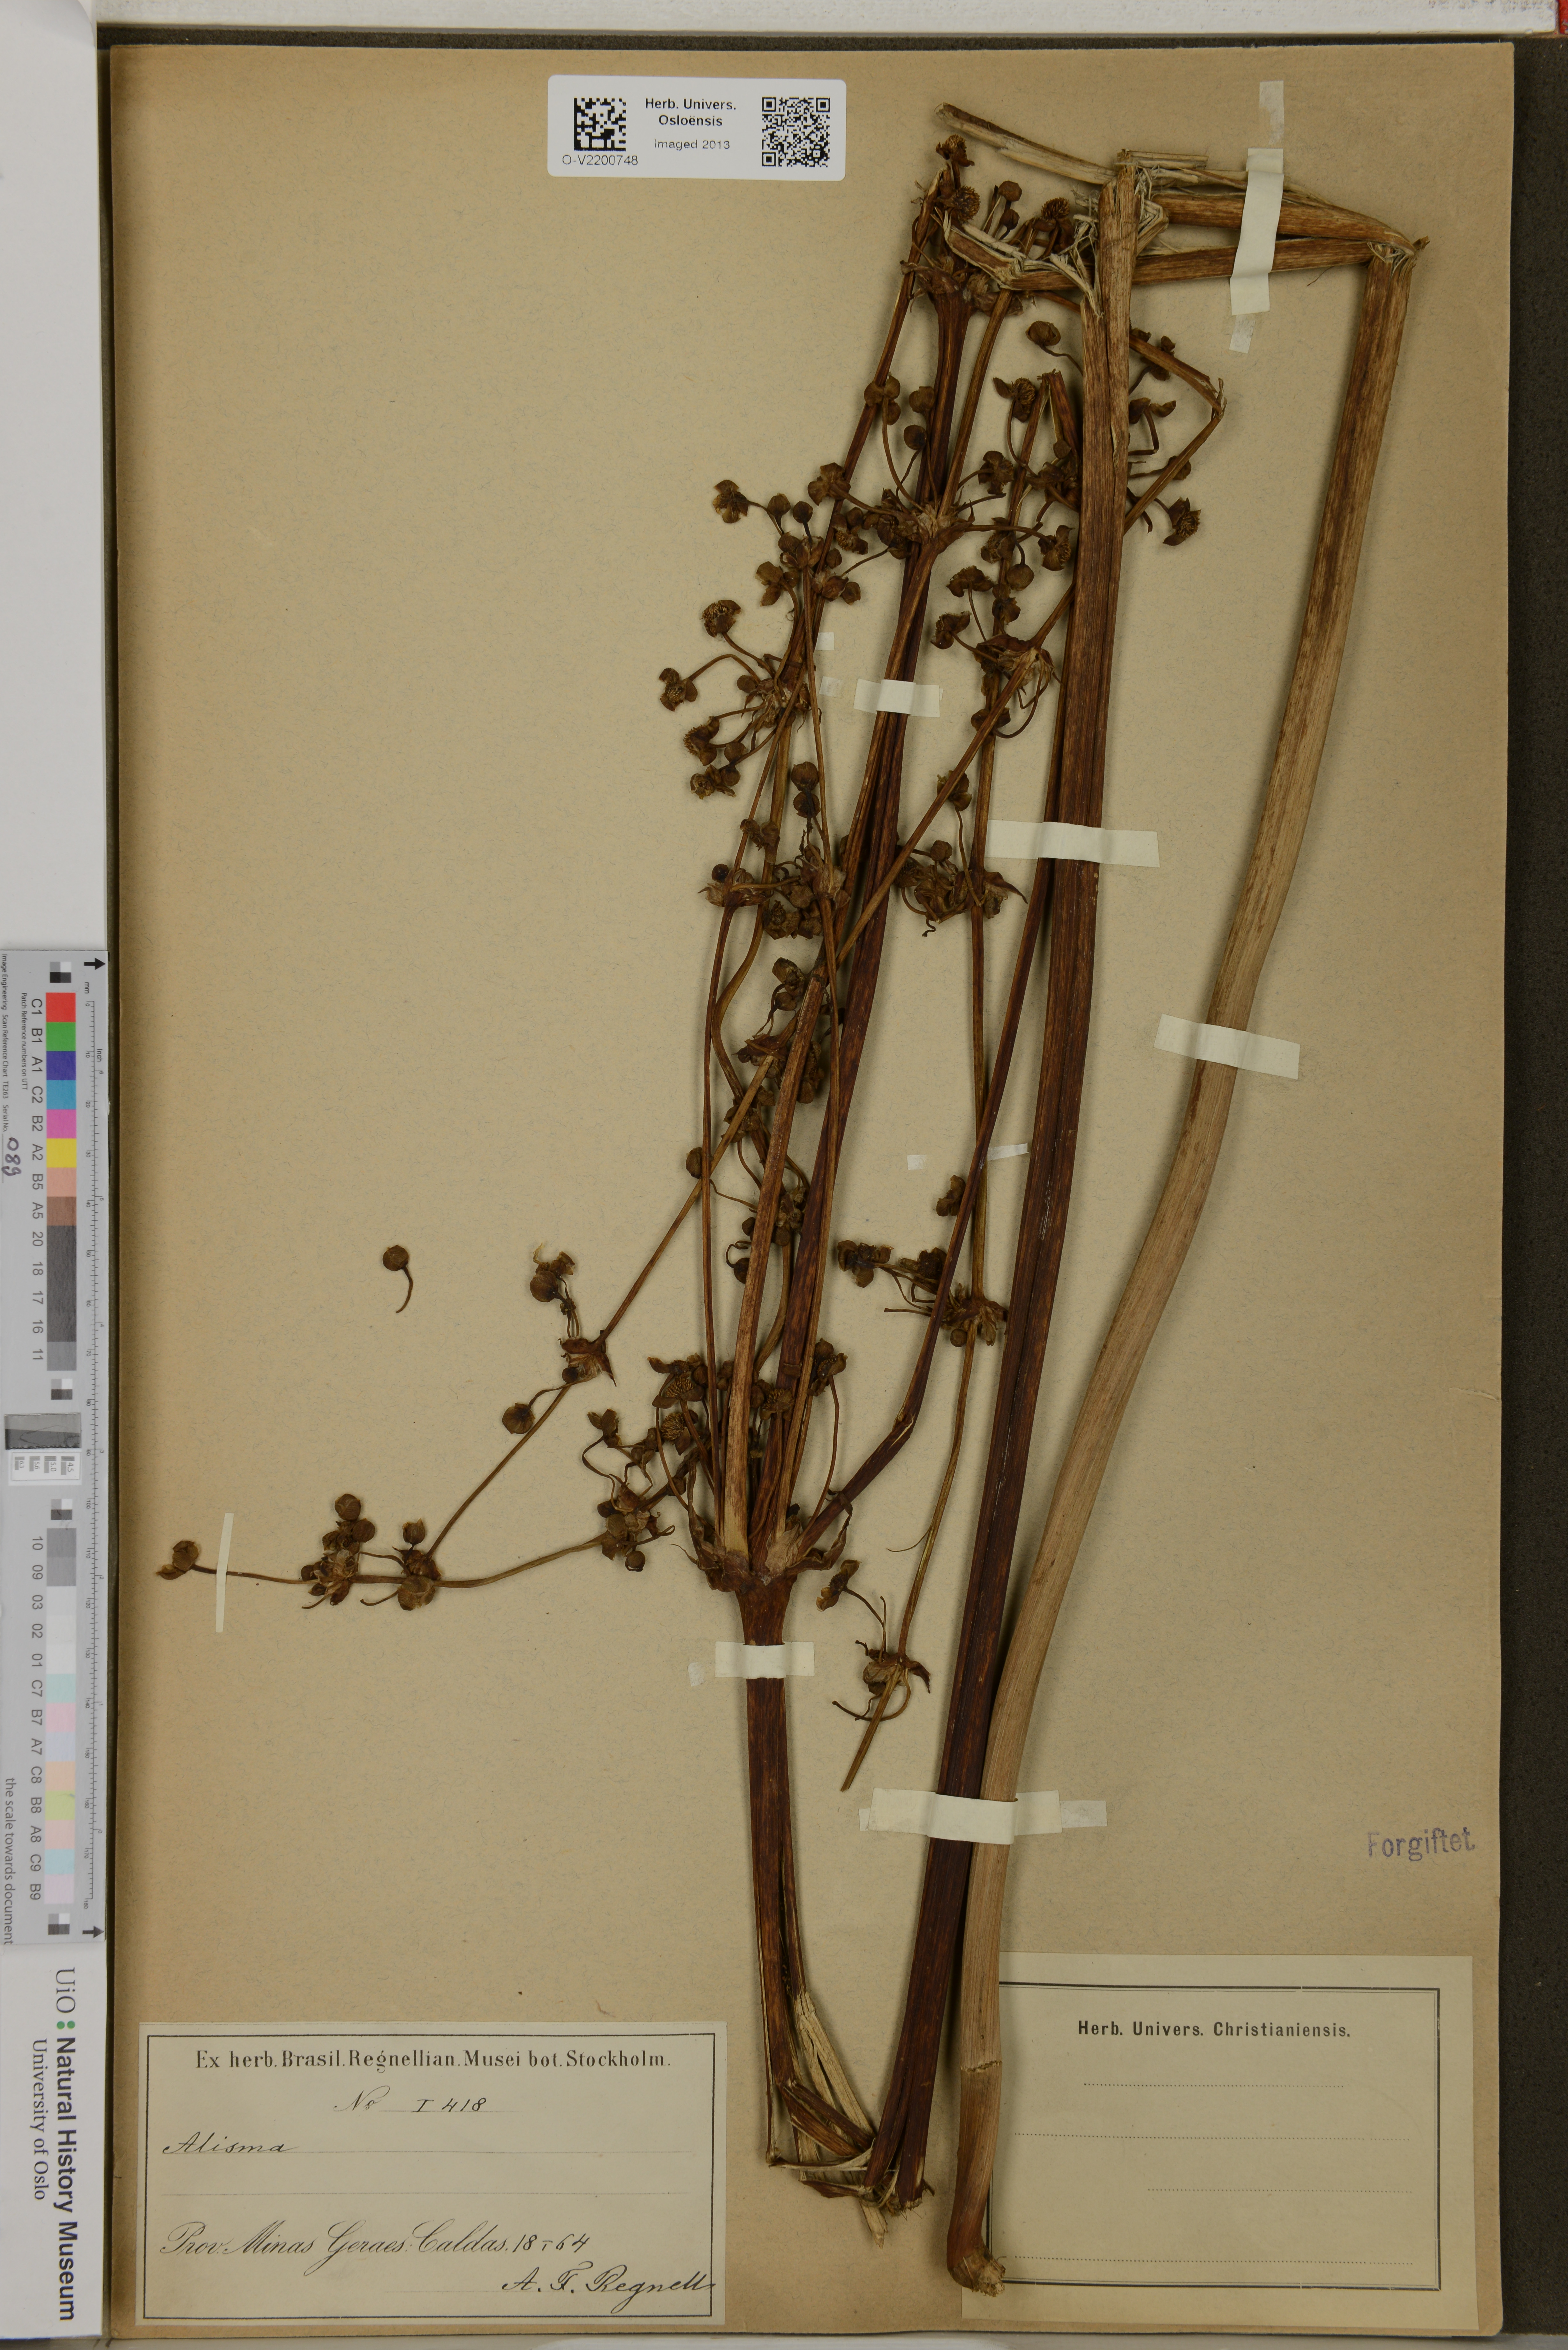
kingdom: Plantae
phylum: Tracheophyta
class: Liliopsida
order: Alismatales
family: Alismataceae
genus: Alisma
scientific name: Alisma
